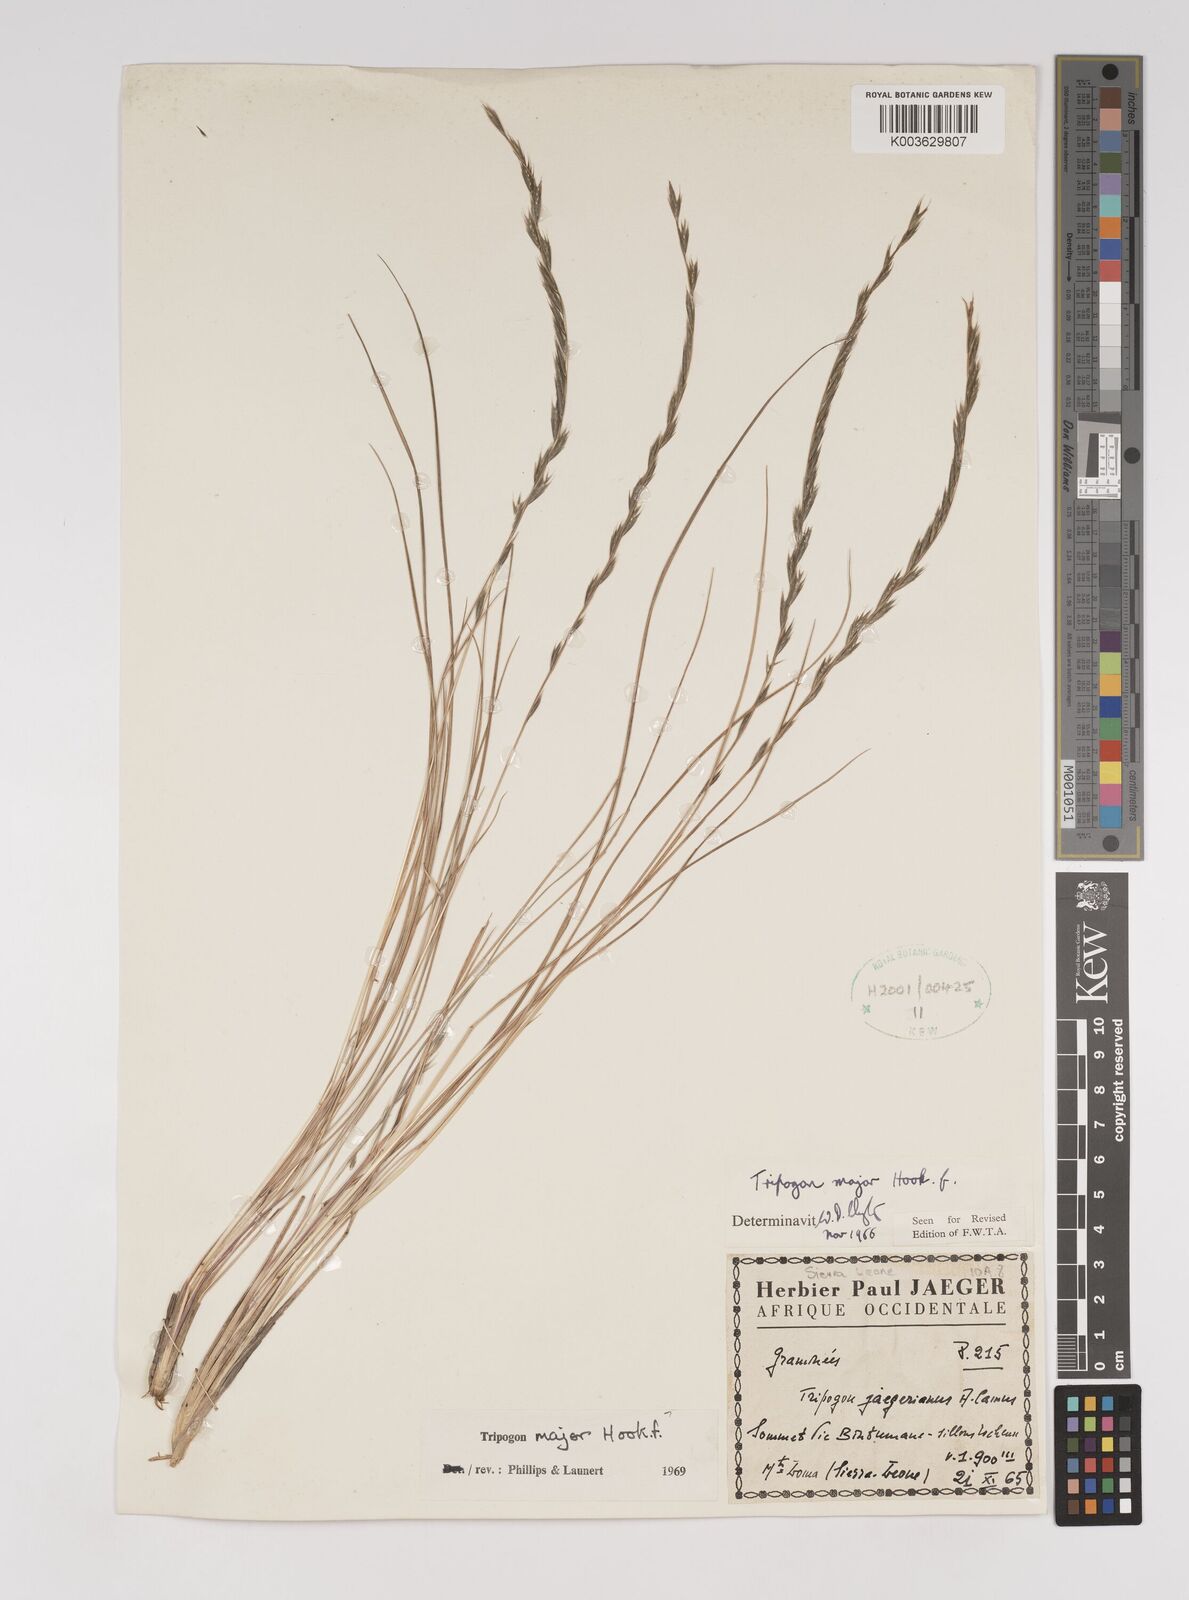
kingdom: Plantae
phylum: Tracheophyta
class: Liliopsida
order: Poales
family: Poaceae
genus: Tripogon
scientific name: Tripogon major
